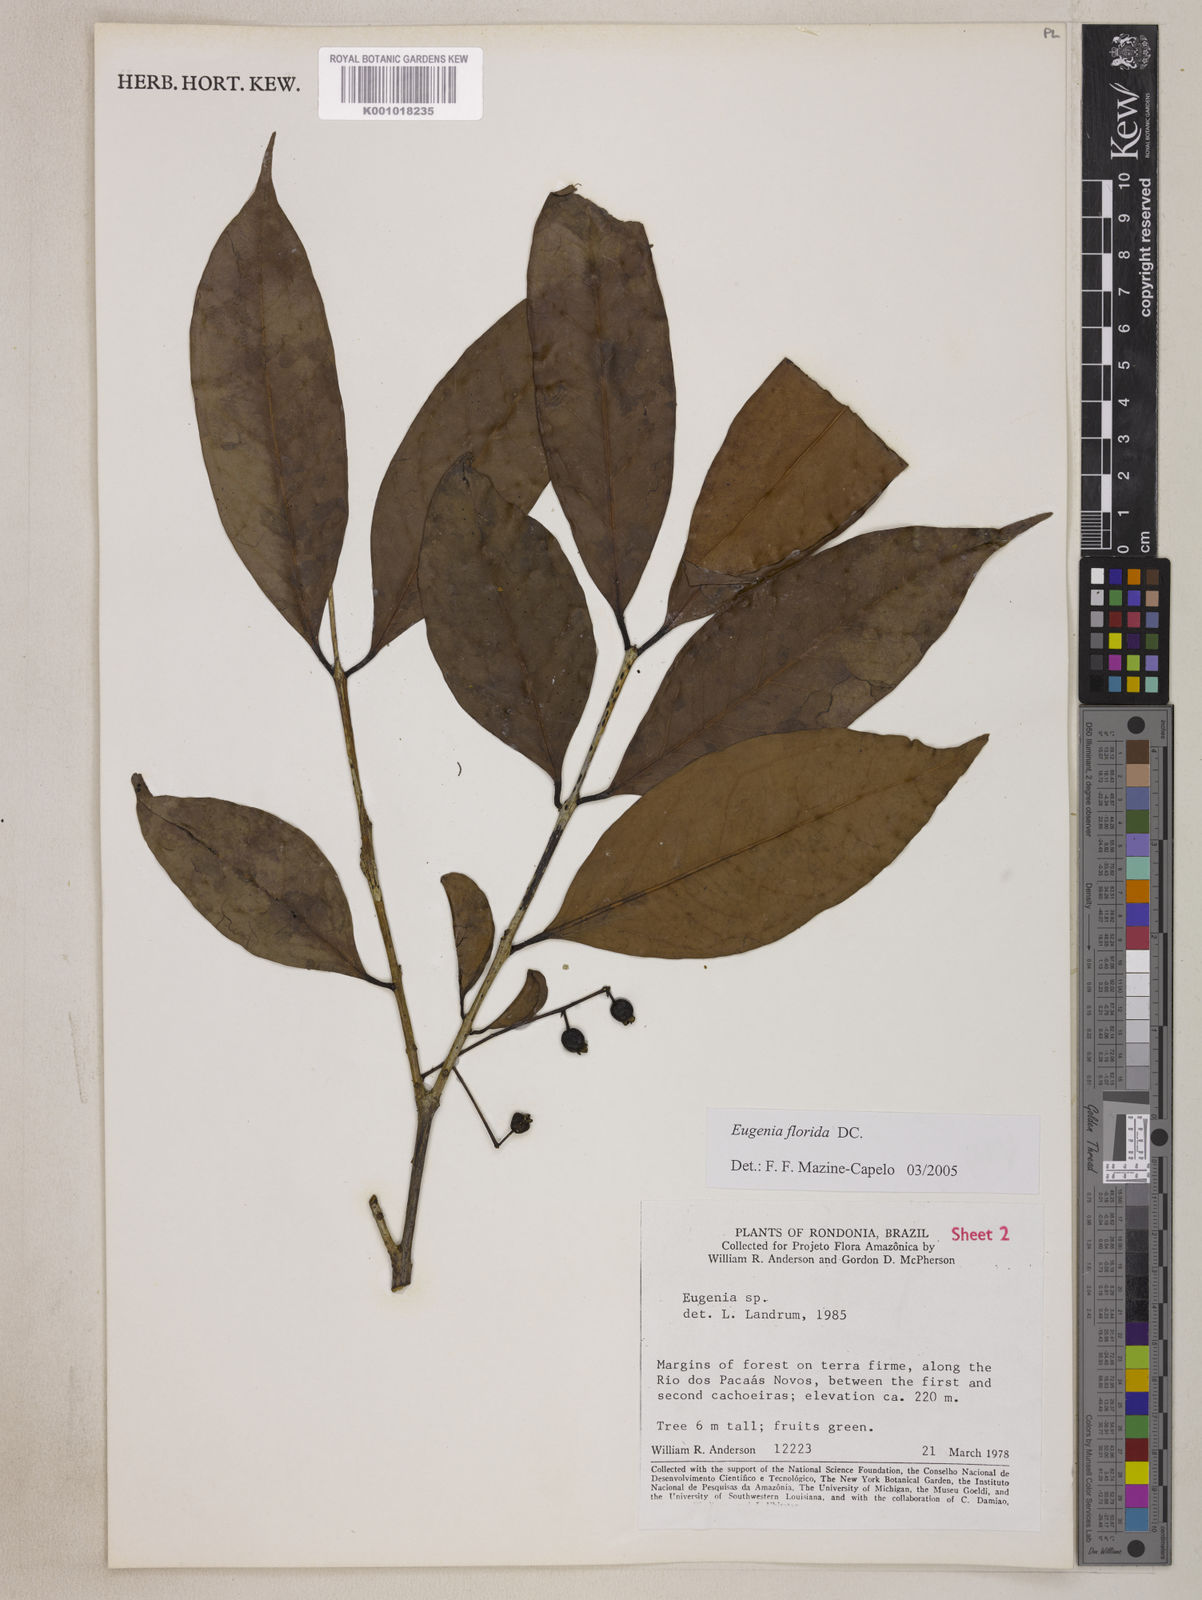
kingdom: Plantae
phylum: Tracheophyta
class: Magnoliopsida
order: Myrtales
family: Myrtaceae
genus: Eugenia
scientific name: Eugenia florida
